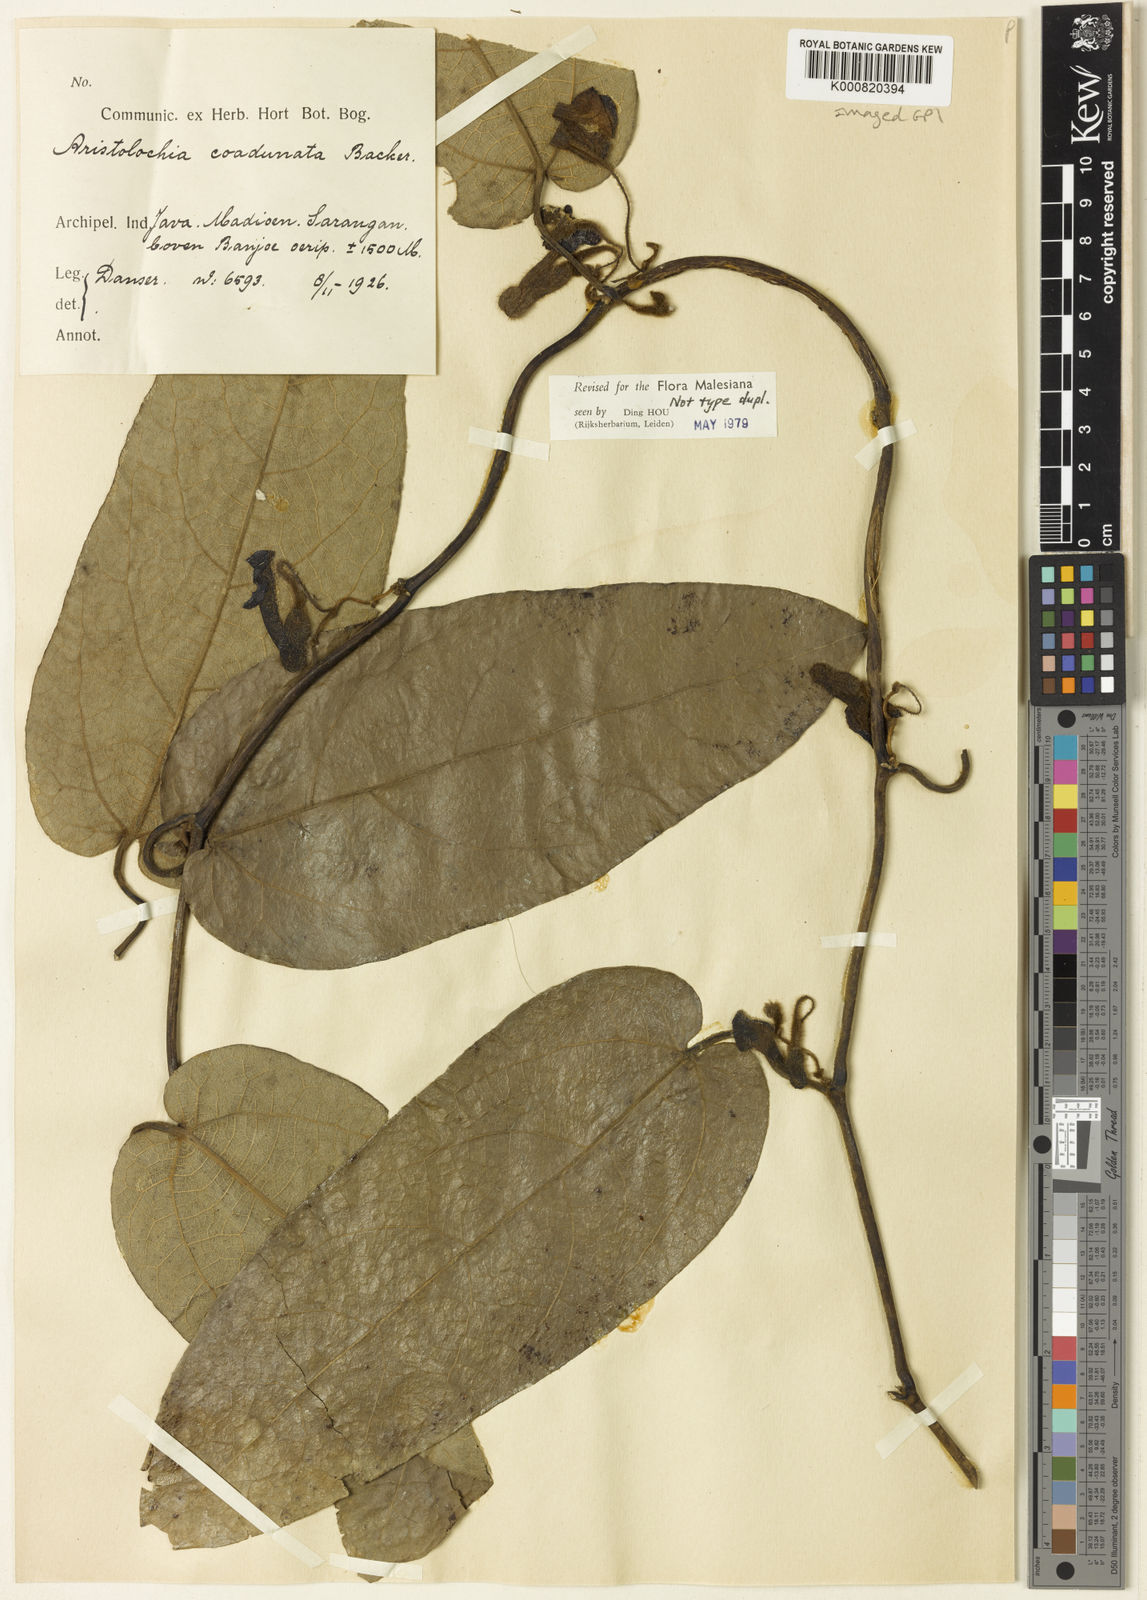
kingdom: Plantae
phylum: Tracheophyta
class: Magnoliopsida
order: Piperales
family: Aristolochiaceae
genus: Isotrema
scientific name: Isotrema
